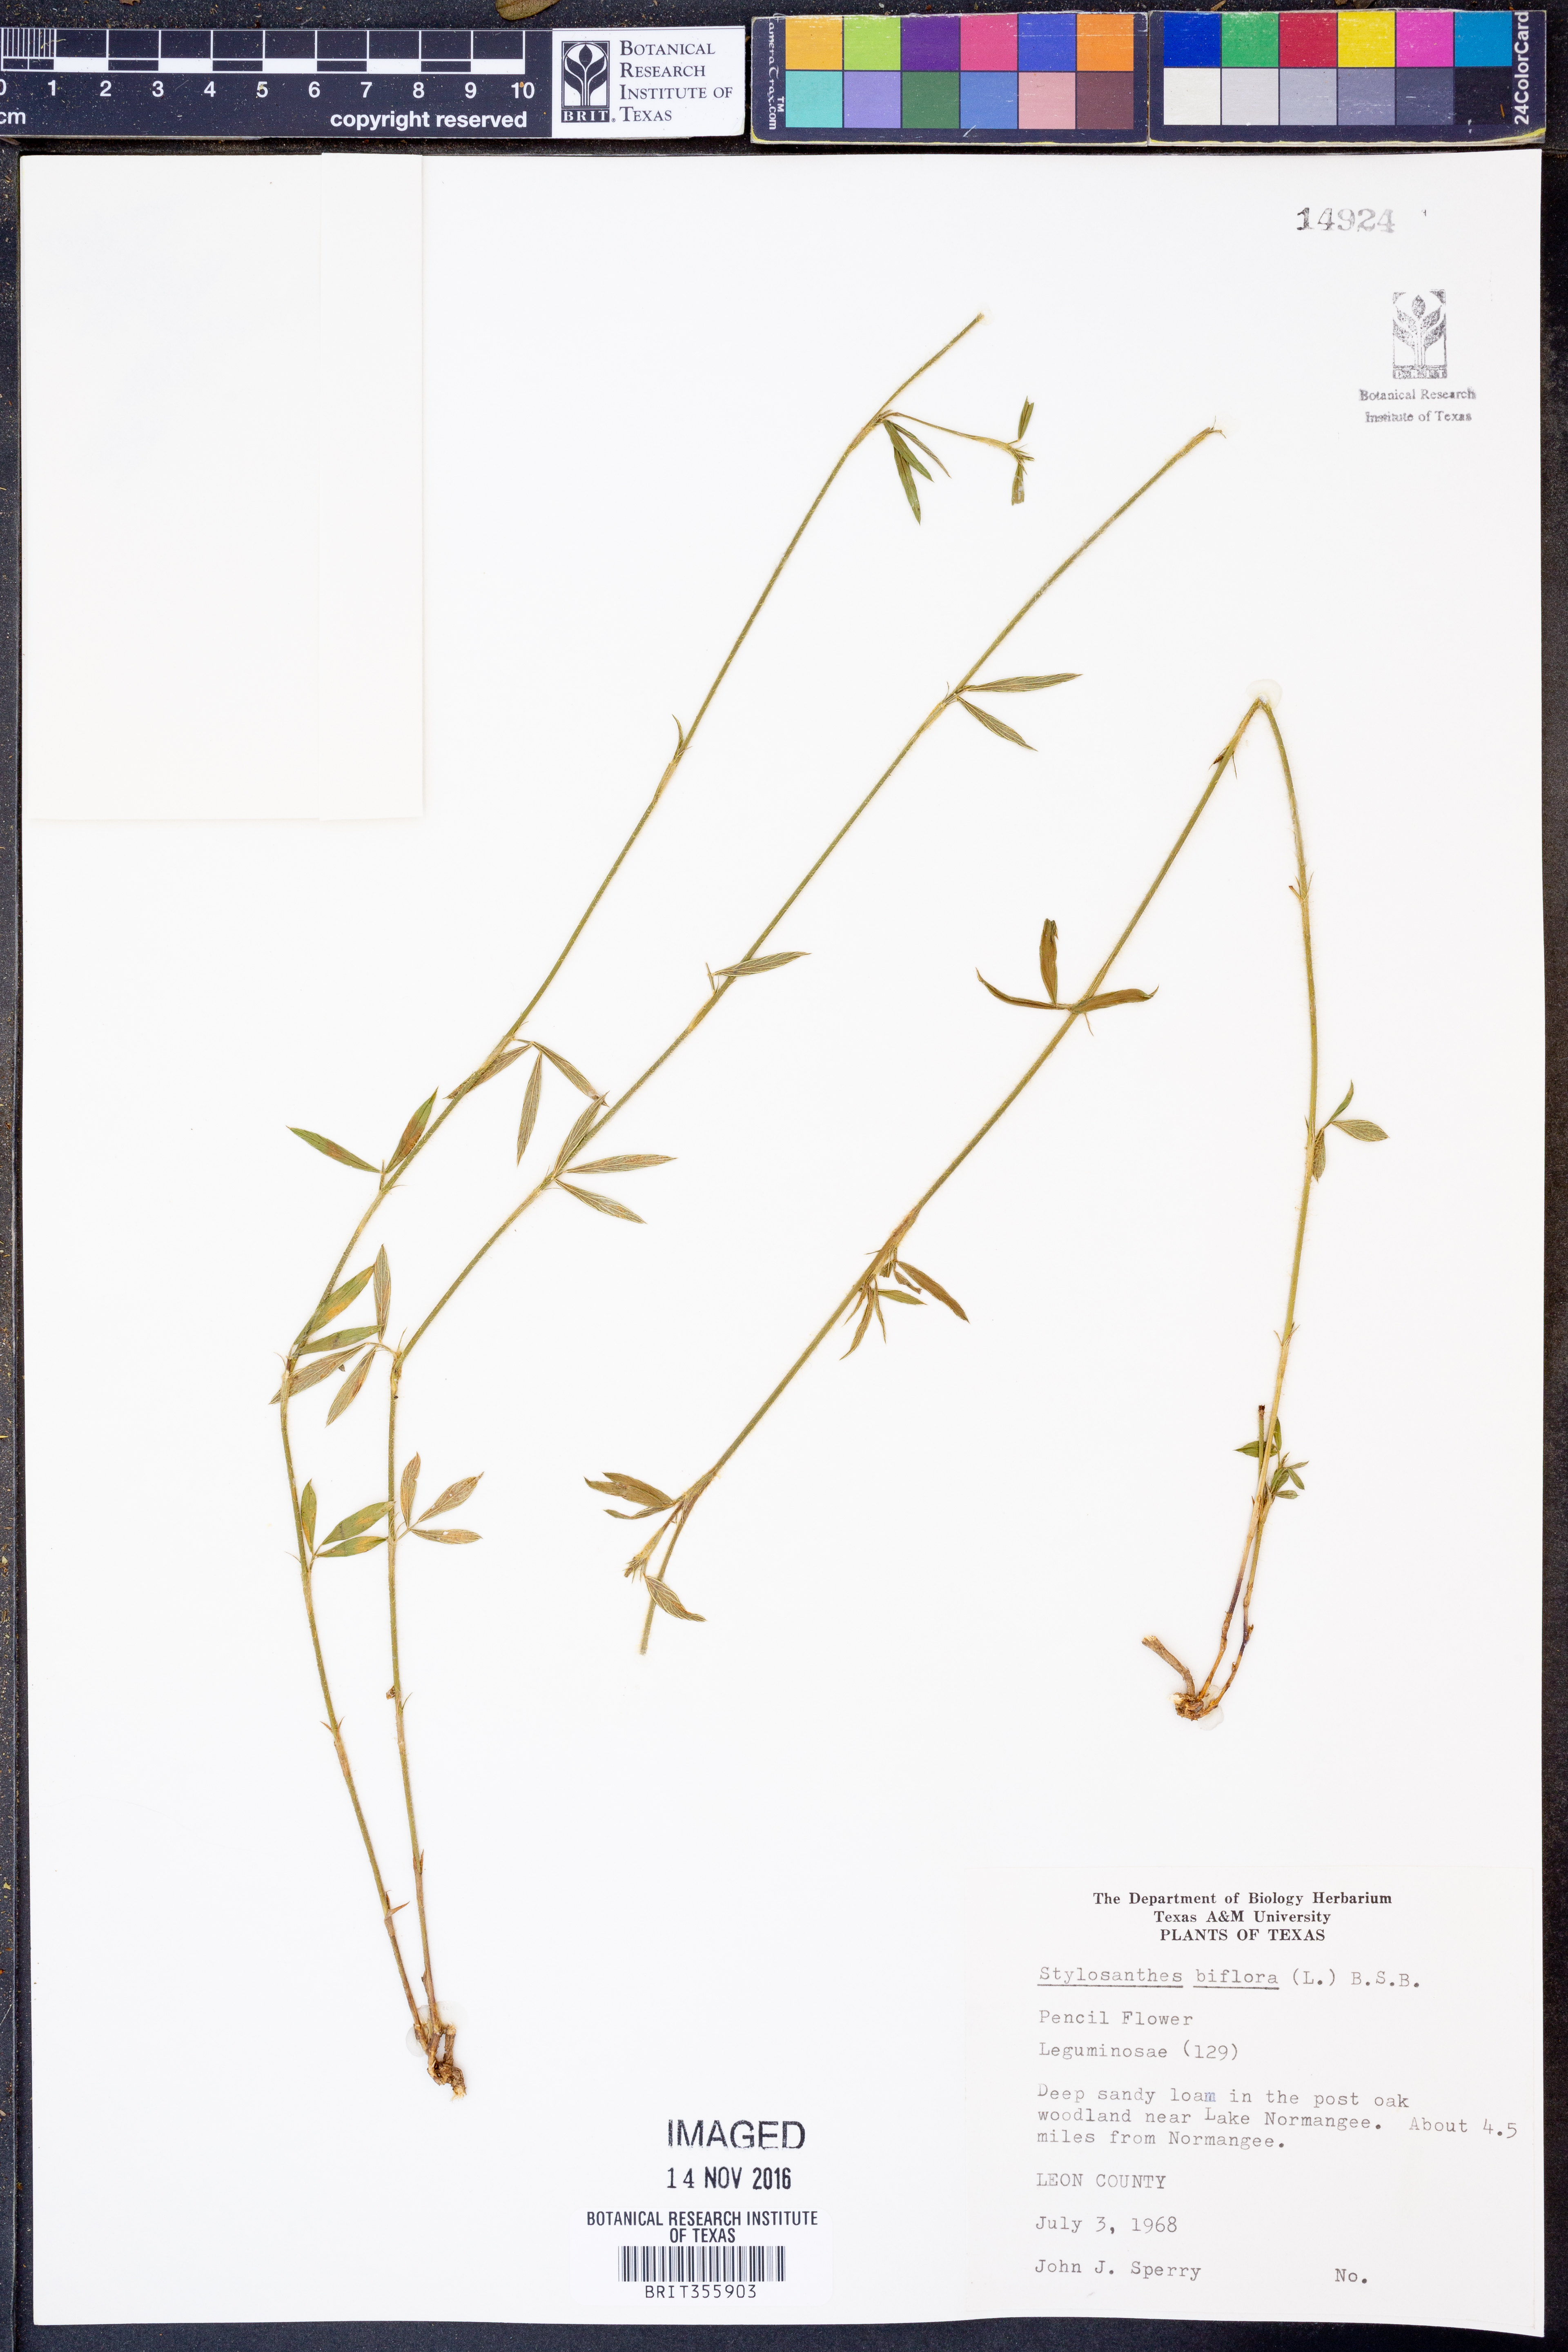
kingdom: Plantae
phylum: Tracheophyta
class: Magnoliopsida
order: Fabales
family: Fabaceae
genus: Stylosanthes
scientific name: Stylosanthes biflora
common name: Two-flower pencil-flower
